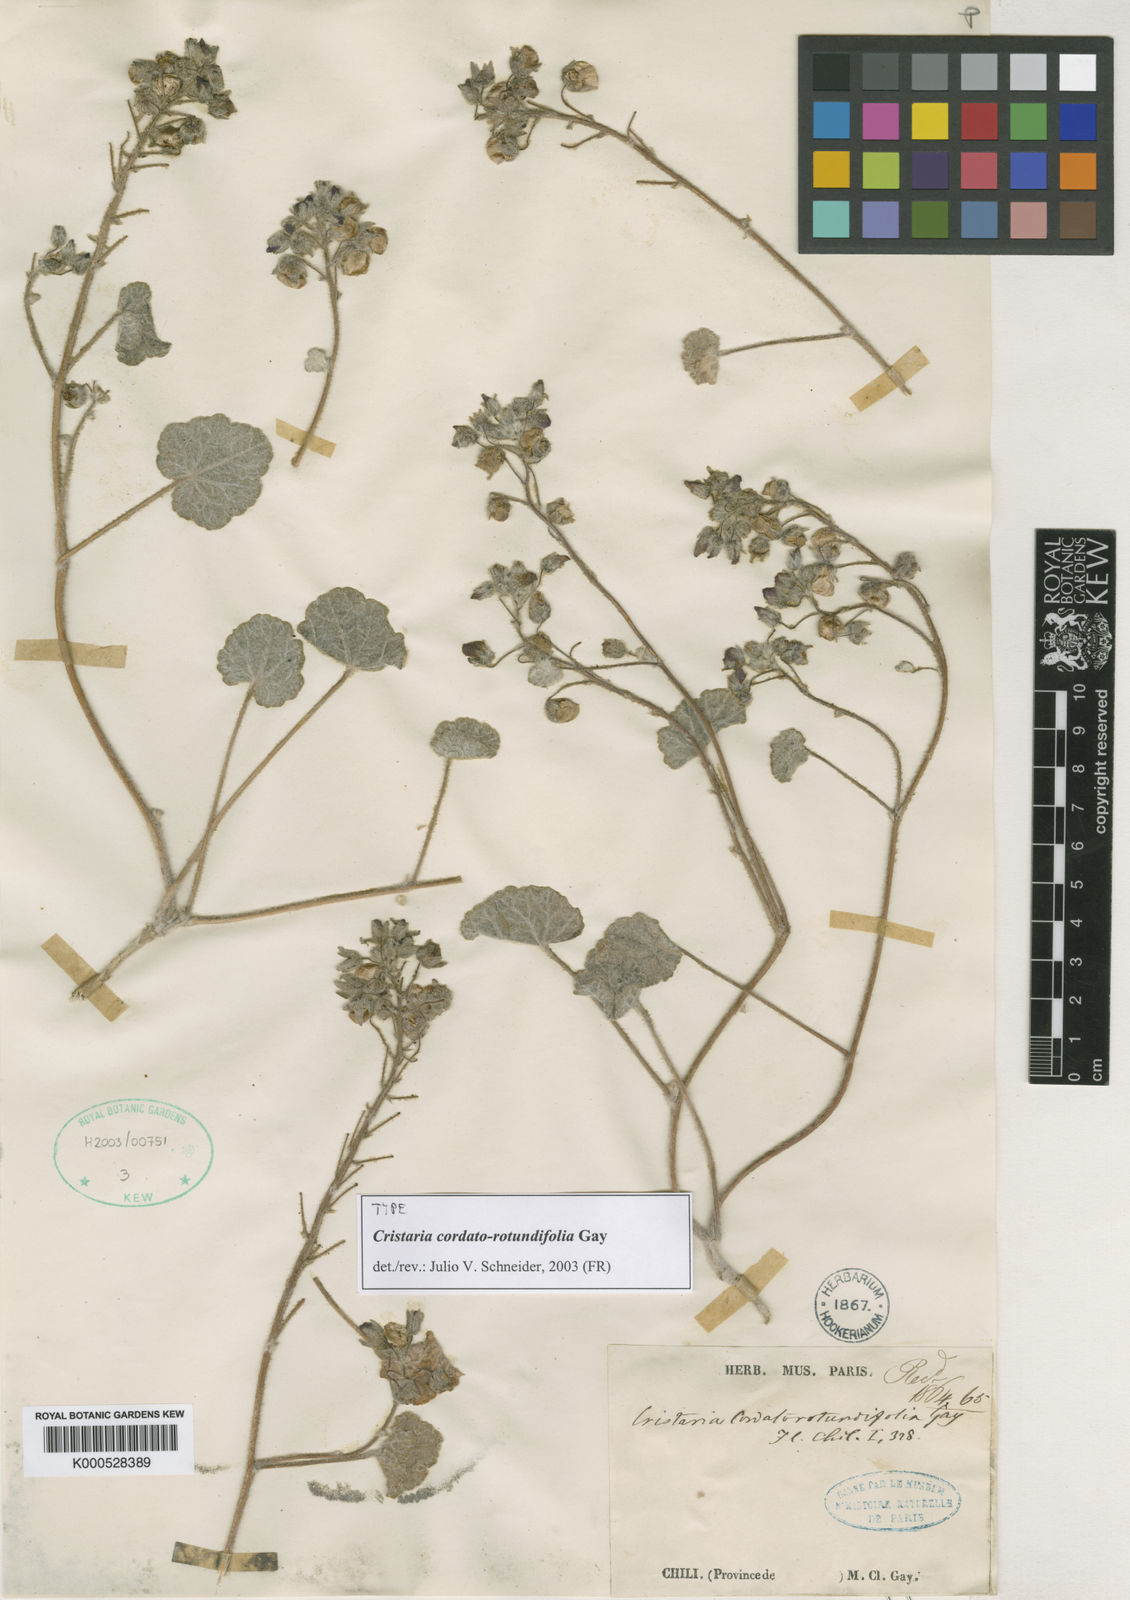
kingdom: Plantae
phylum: Tracheophyta
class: Magnoliopsida
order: Malvales
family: Malvaceae
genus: Cristaria
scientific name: Cristaria cordatorotundifolia
